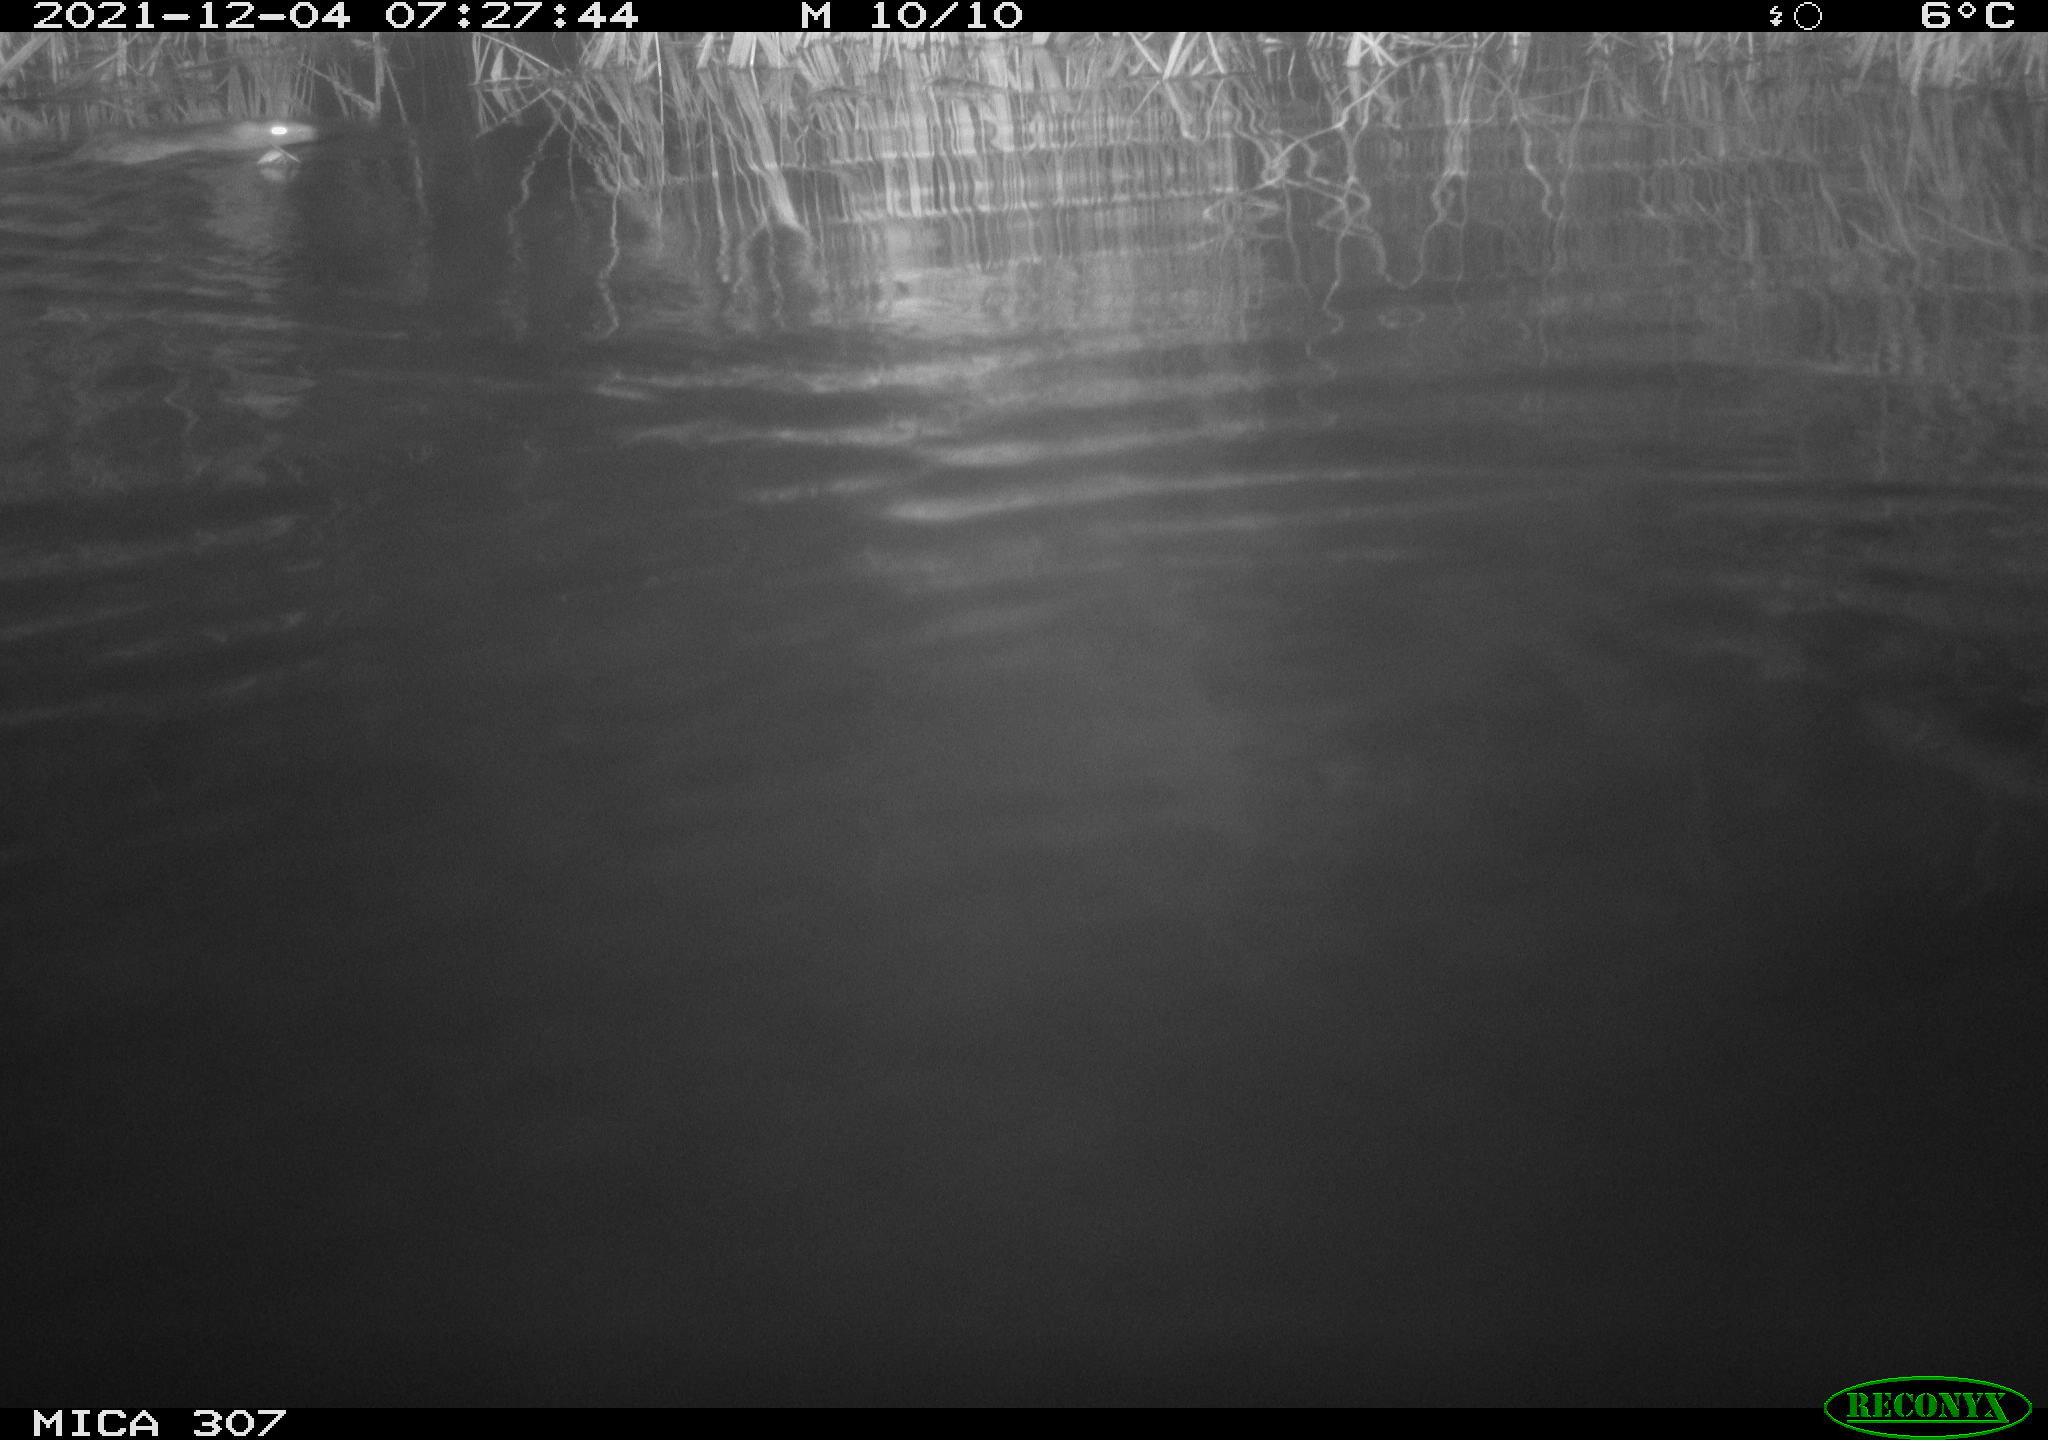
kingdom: Animalia
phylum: Chordata
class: Mammalia
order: Rodentia
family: Muridae
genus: Rattus
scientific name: Rattus norvegicus
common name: Brown rat
